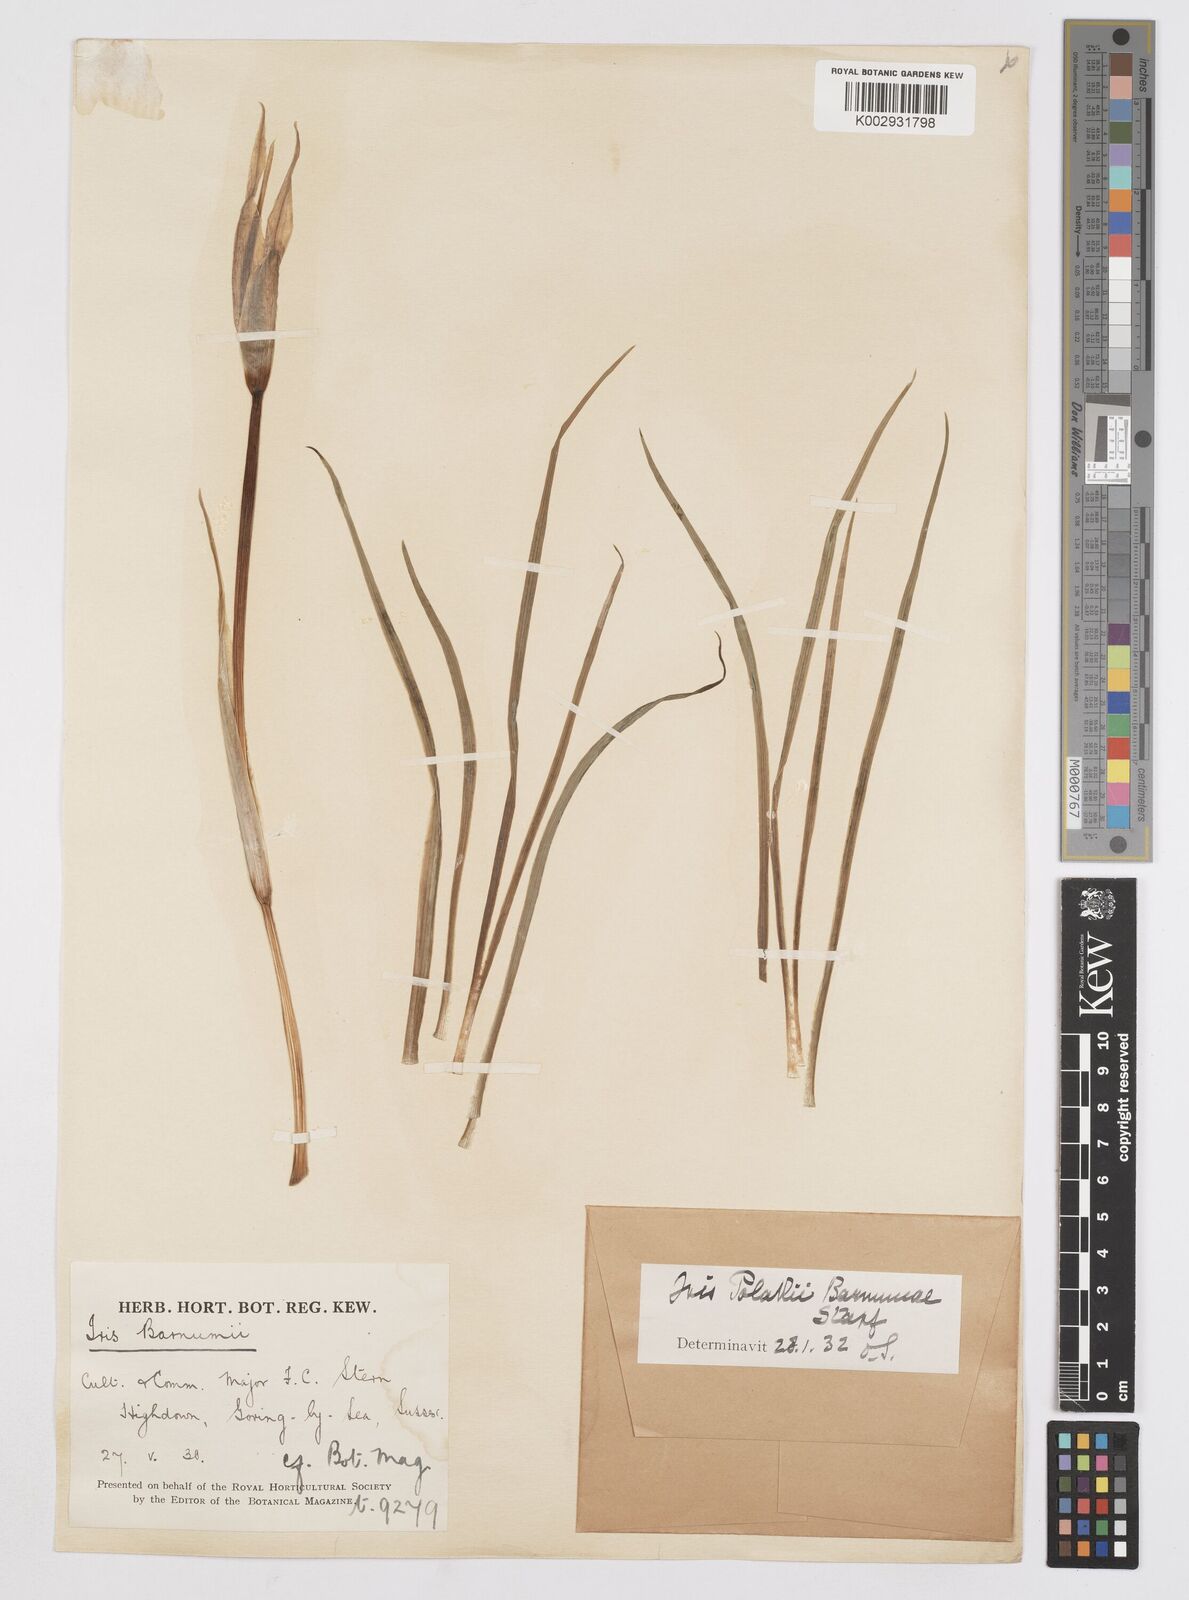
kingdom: Plantae
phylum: Tracheophyta
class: Liliopsida
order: Asparagales
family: Iridaceae
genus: Iris
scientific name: Iris barnumiae
